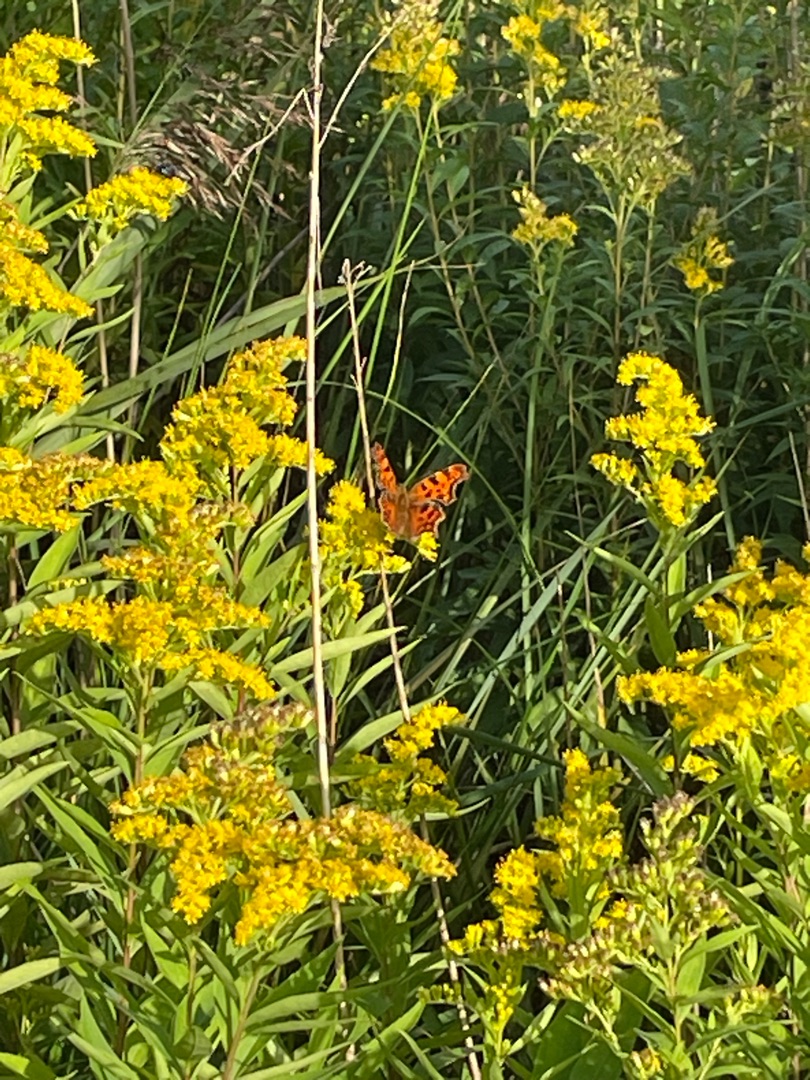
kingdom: Animalia
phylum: Arthropoda
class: Insecta
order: Lepidoptera
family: Nymphalidae
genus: Polygonia
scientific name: Polygonia c-album
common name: Det hvide C
